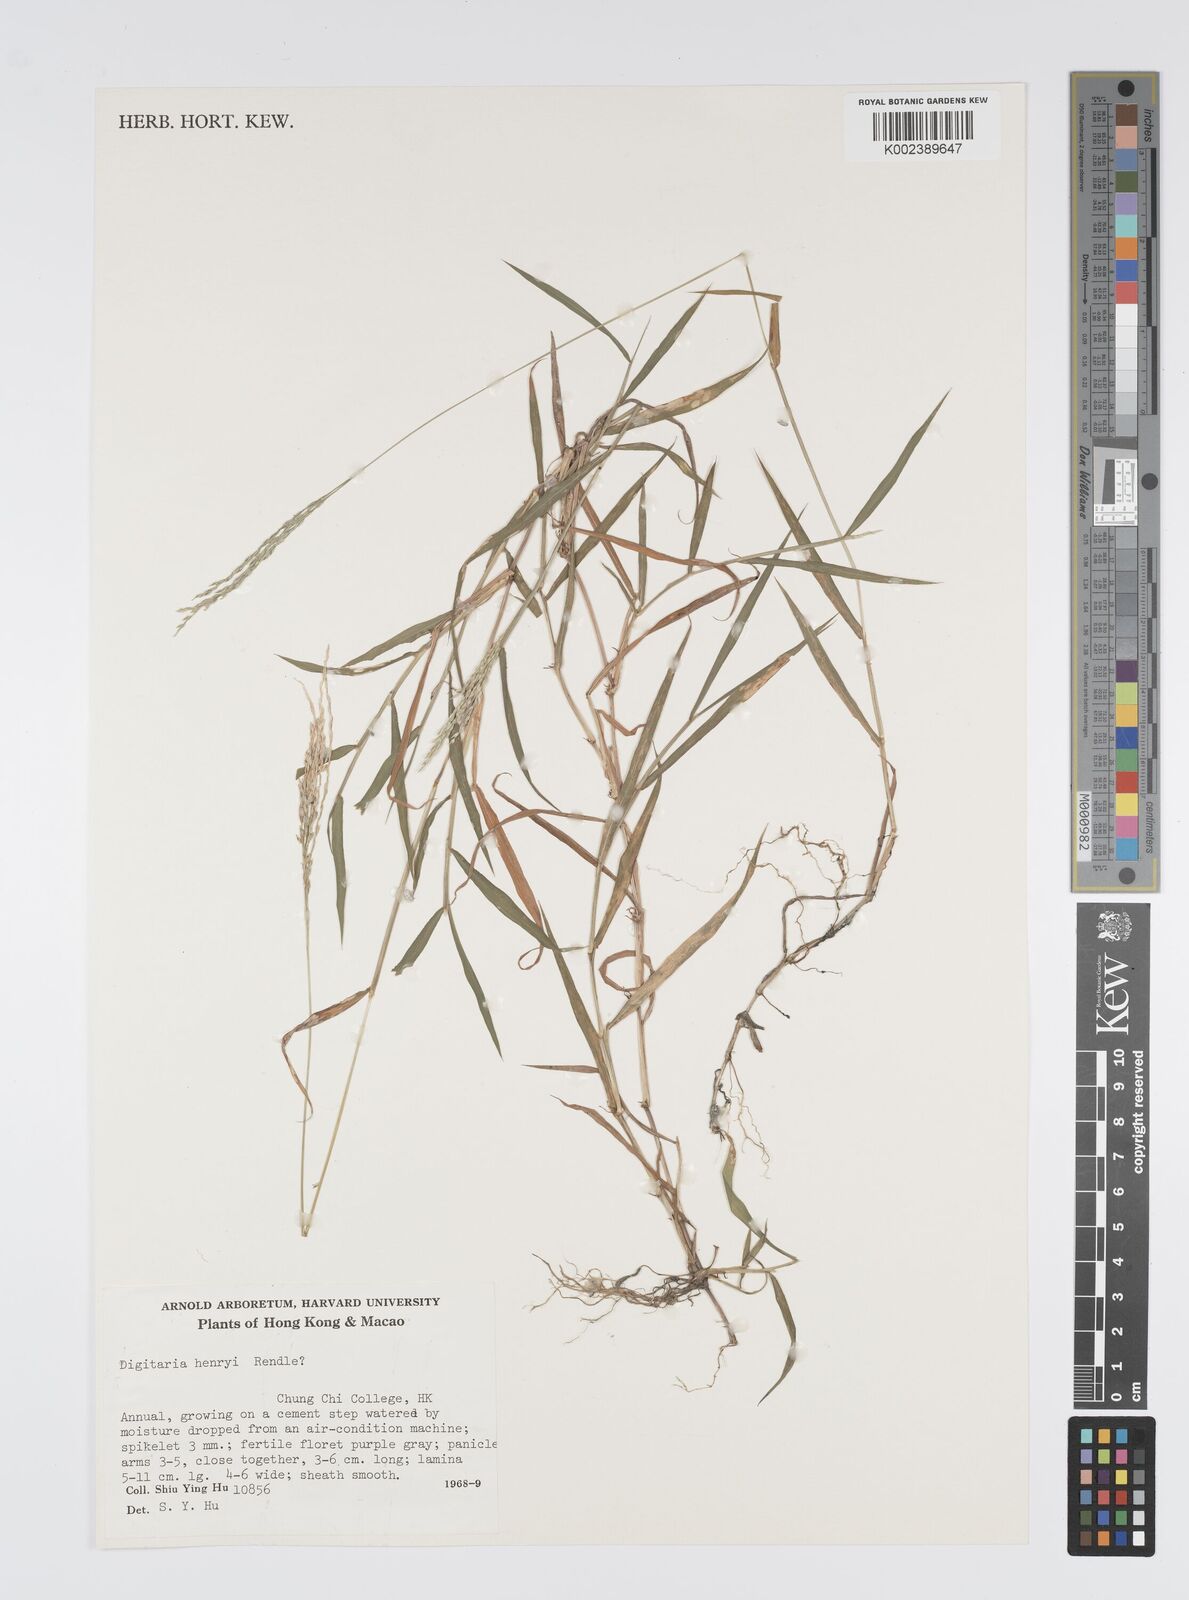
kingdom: Plantae
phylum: Tracheophyta
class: Liliopsida
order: Poales
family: Poaceae
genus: Digitaria
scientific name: Digitaria ciliaris
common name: Tropical finger-grass
